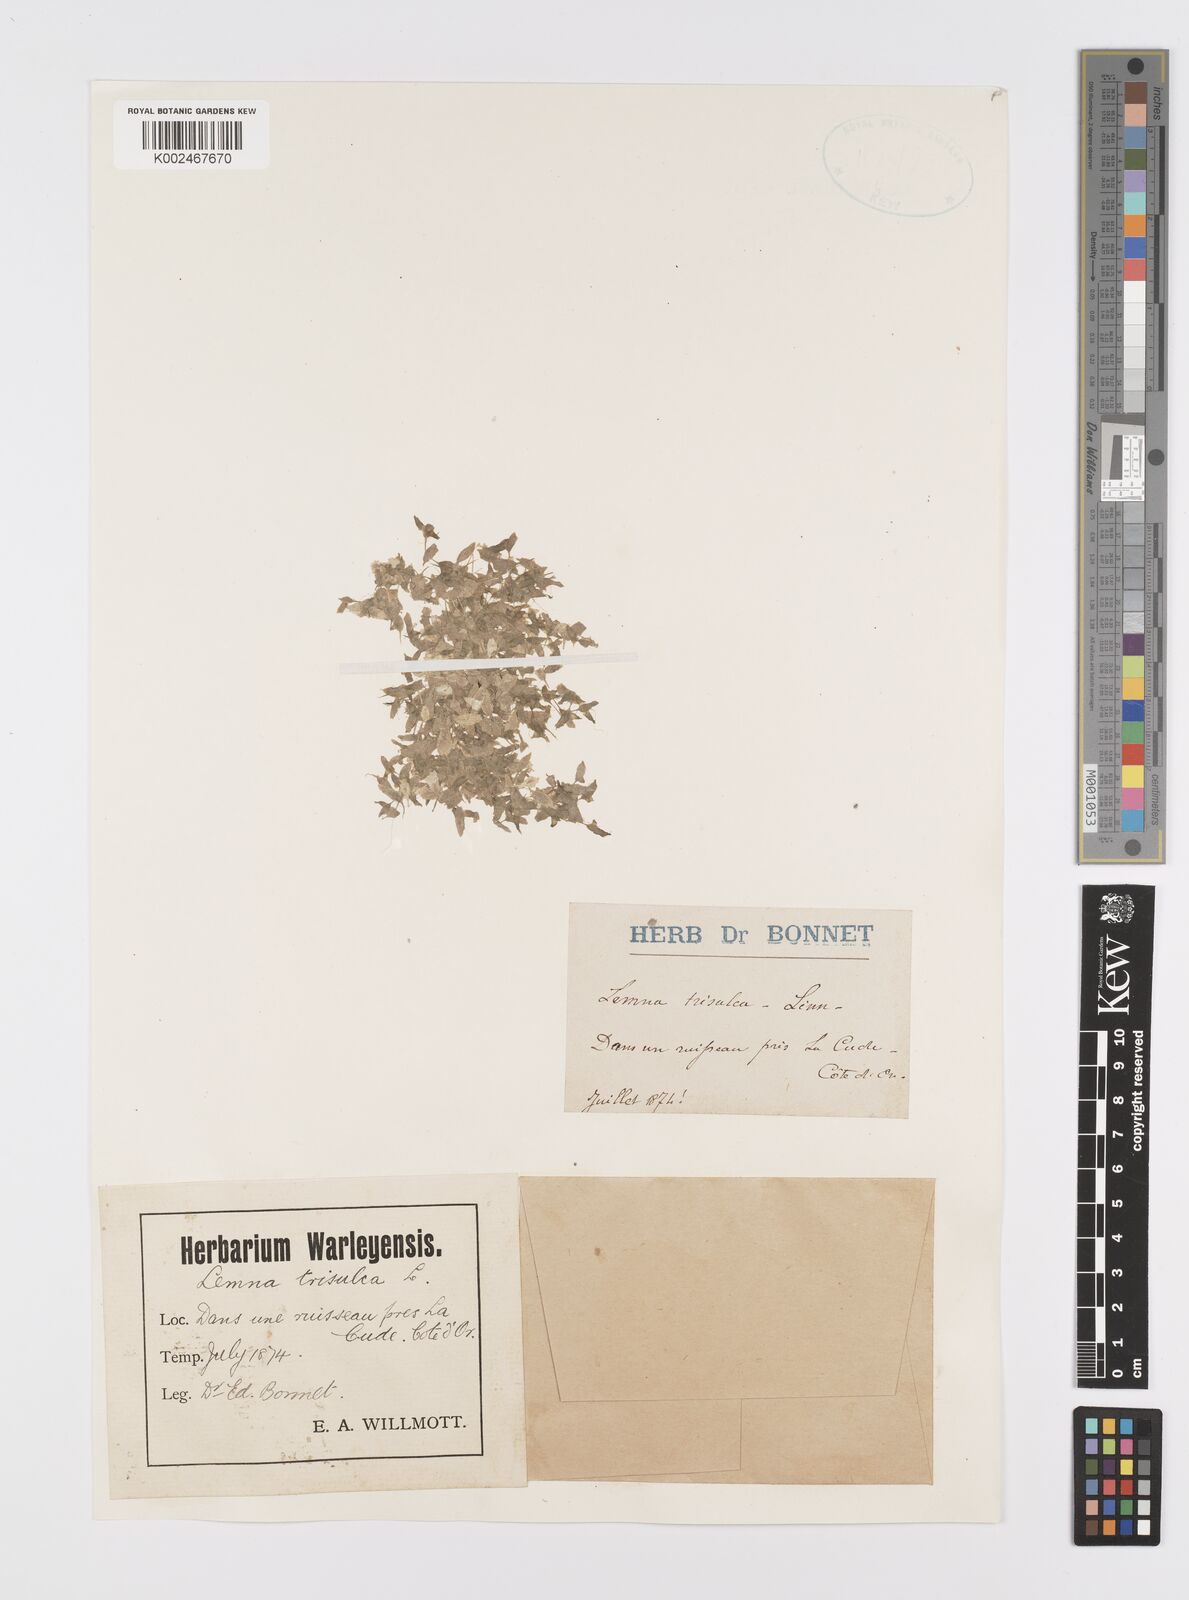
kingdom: Plantae
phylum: Tracheophyta
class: Liliopsida
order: Alismatales
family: Araceae
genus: Lemna
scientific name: Lemna trisulca
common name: Ivy-leaved duckweed
